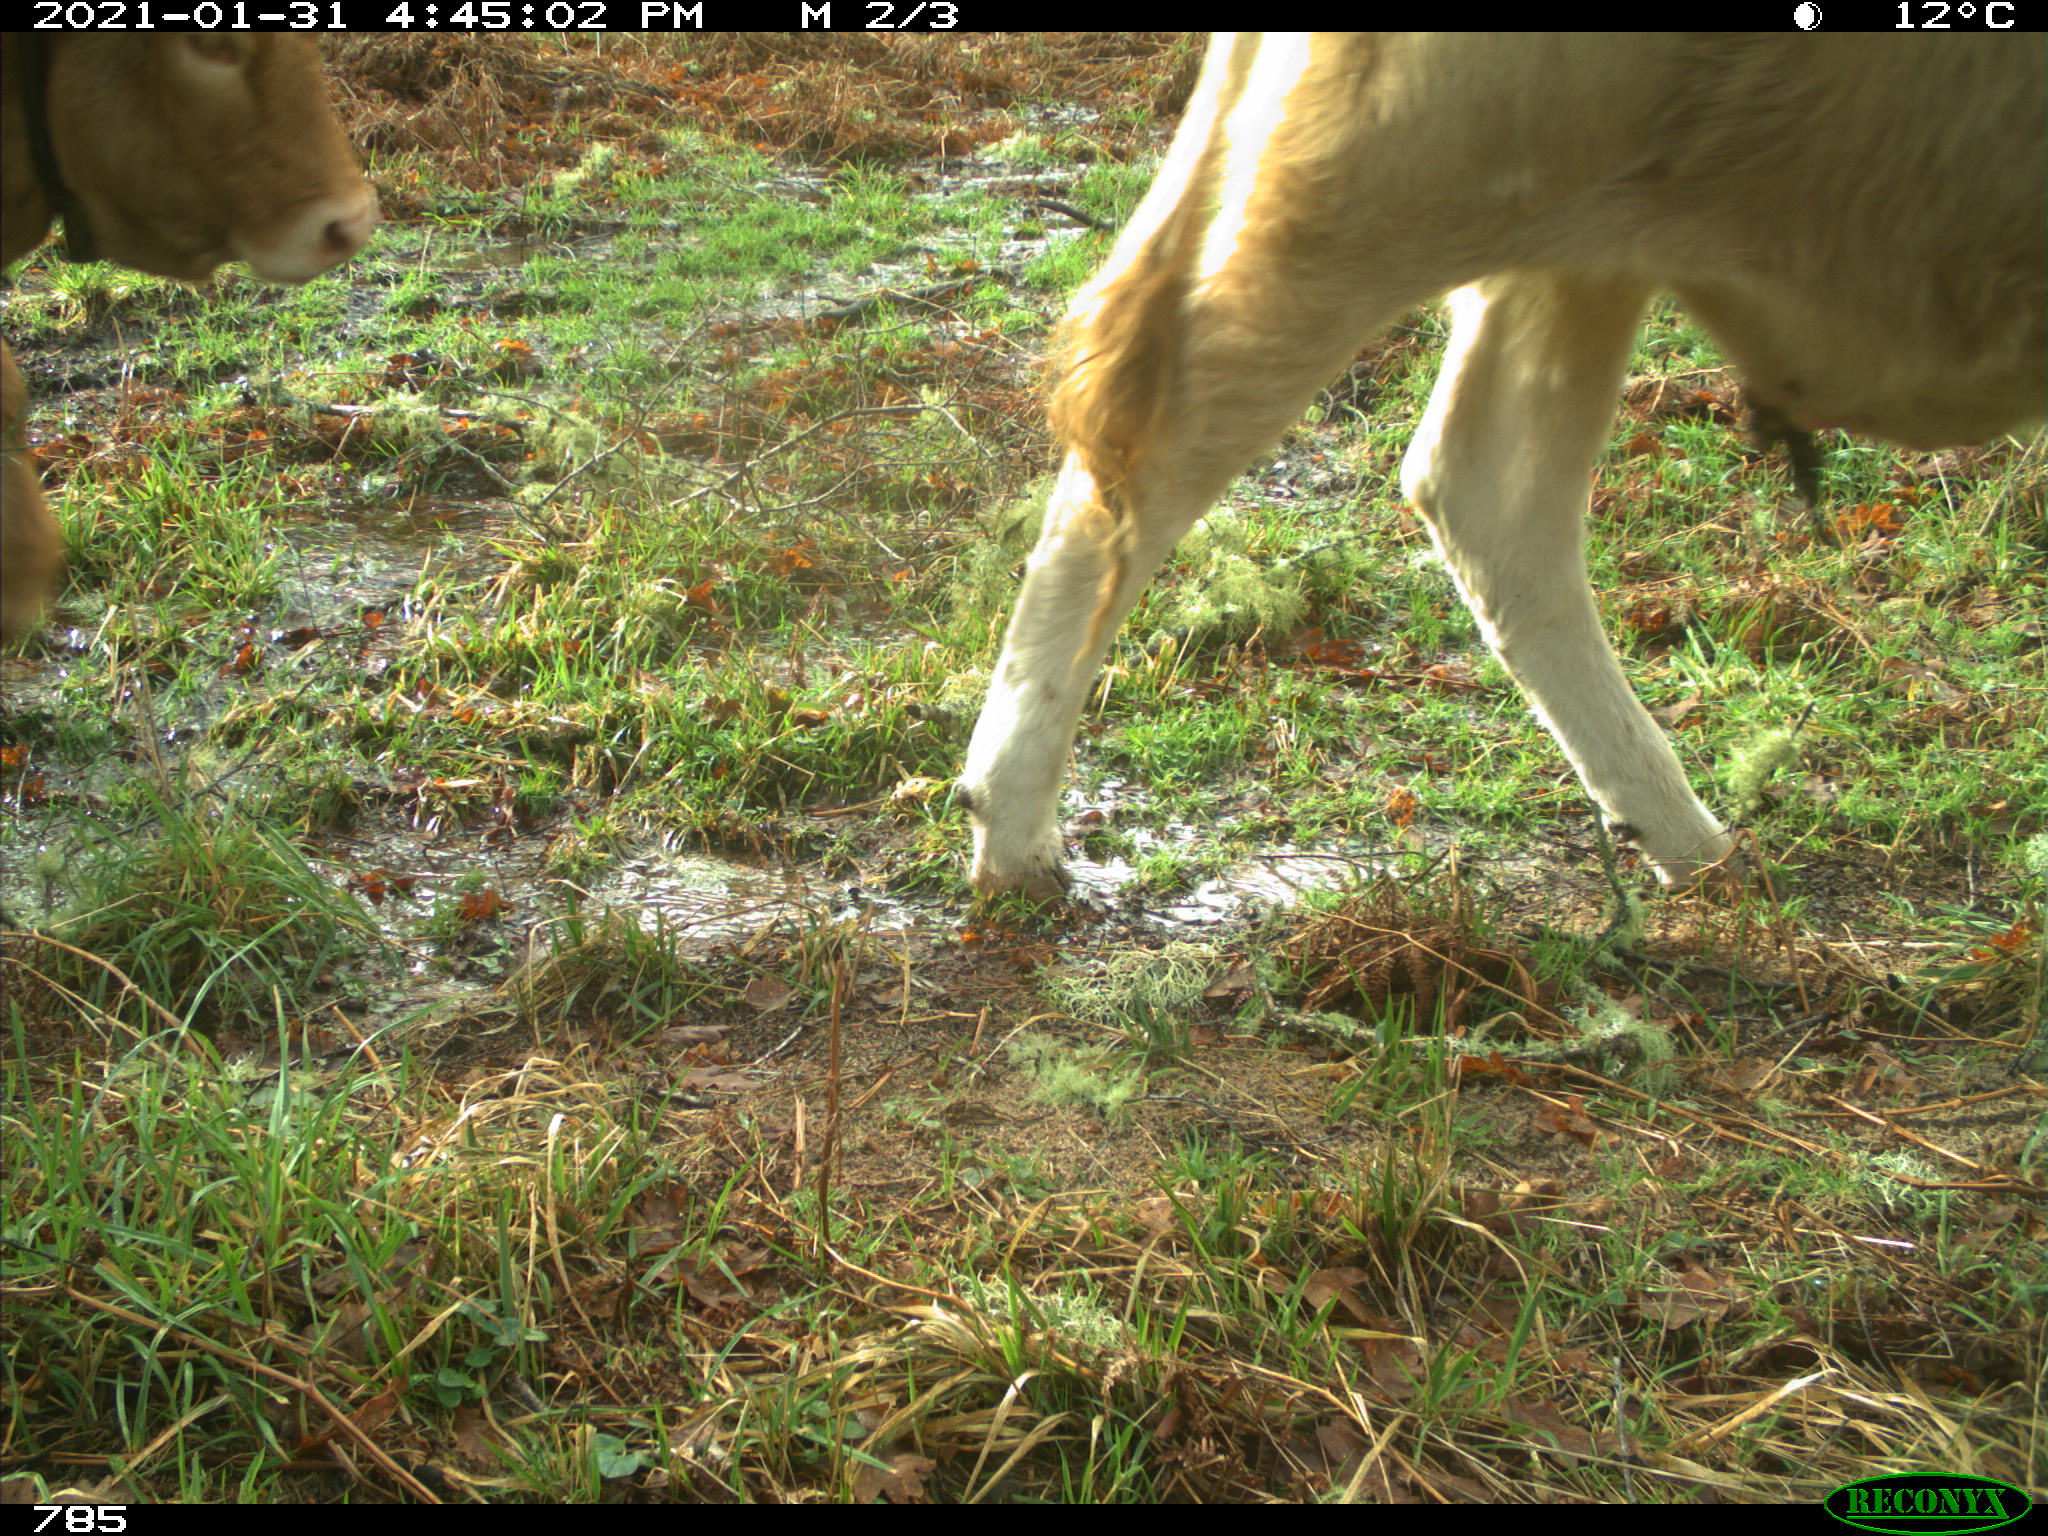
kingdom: Animalia
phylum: Chordata
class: Mammalia
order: Artiodactyla
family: Bovidae
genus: Bos
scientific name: Bos taurus
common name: Domesticated cattle
